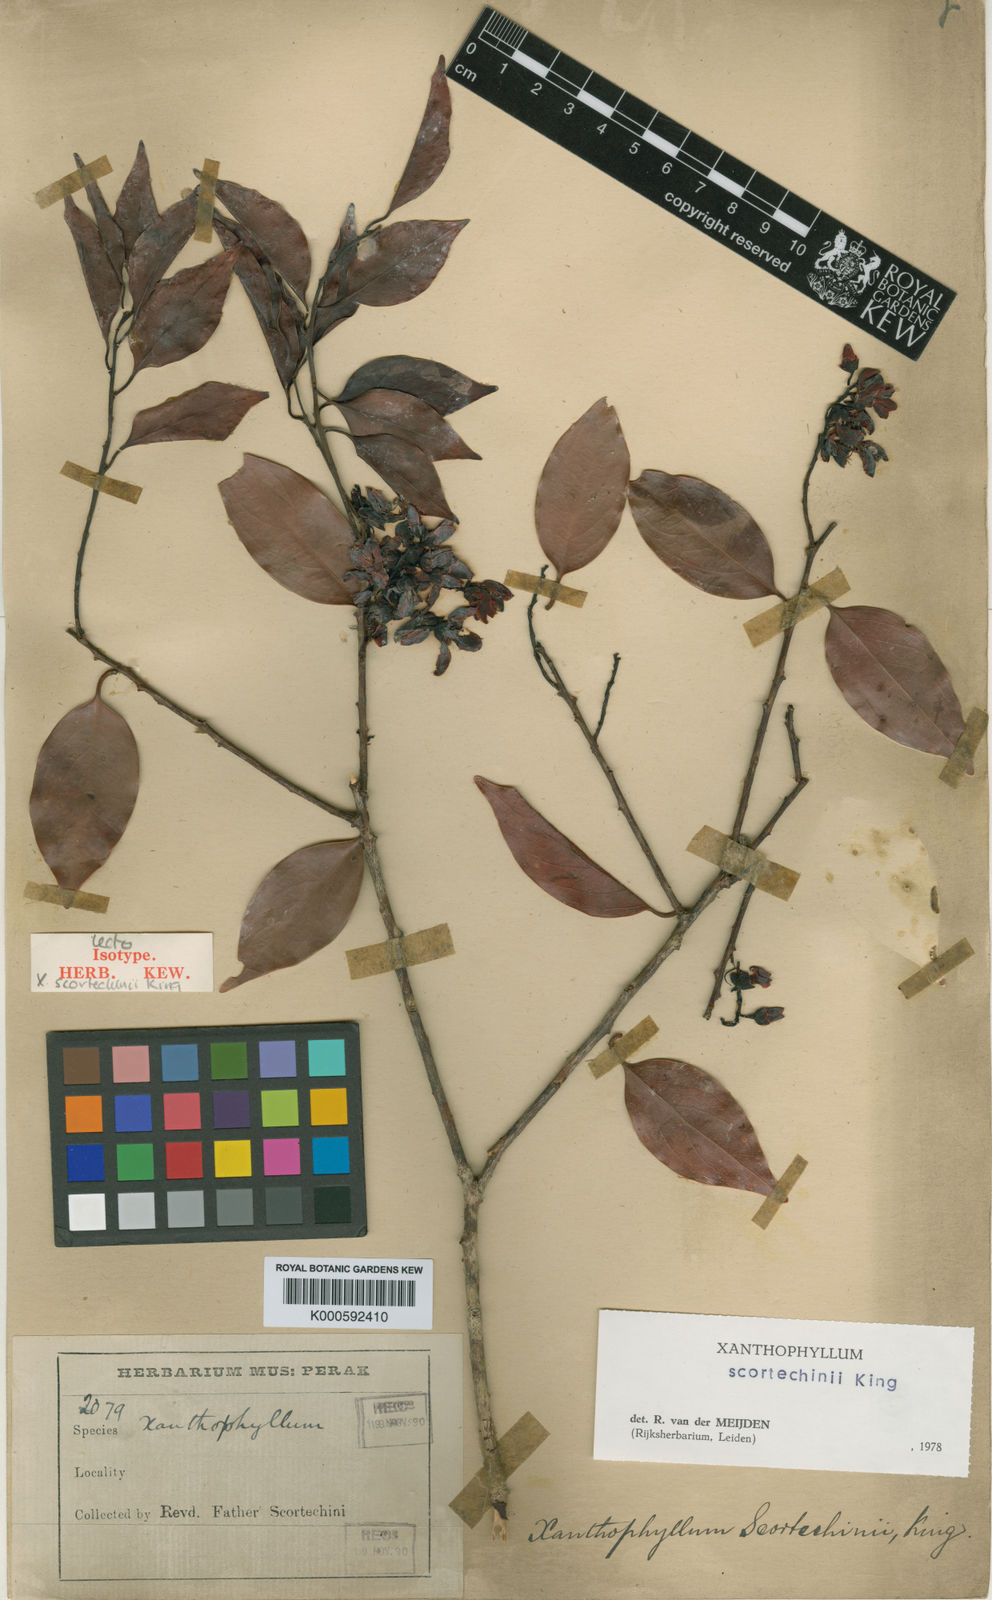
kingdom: Plantae
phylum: Tracheophyta
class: Magnoliopsida
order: Fabales
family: Polygalaceae
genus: Xanthophyllum
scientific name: Xanthophyllum obscurum
